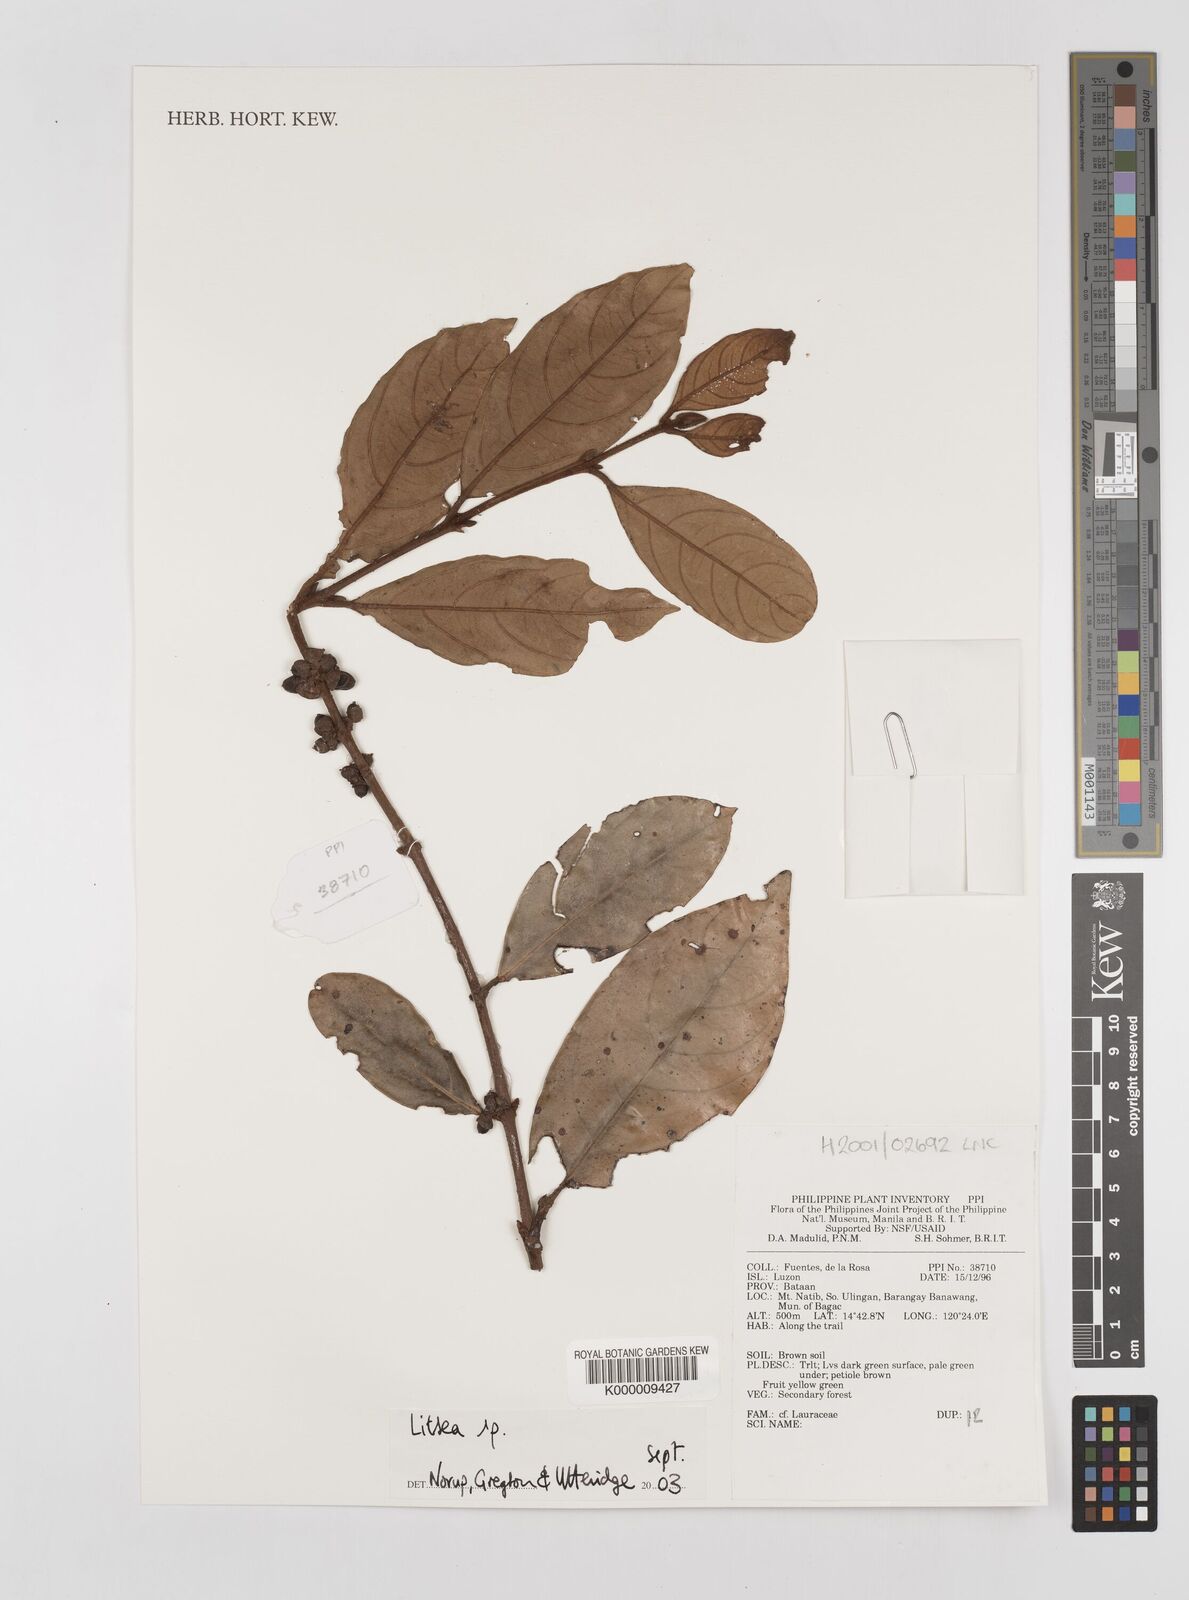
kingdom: Plantae
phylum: Tracheophyta
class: Magnoliopsida
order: Laurales
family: Lauraceae
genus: Litsea
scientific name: Litsea
